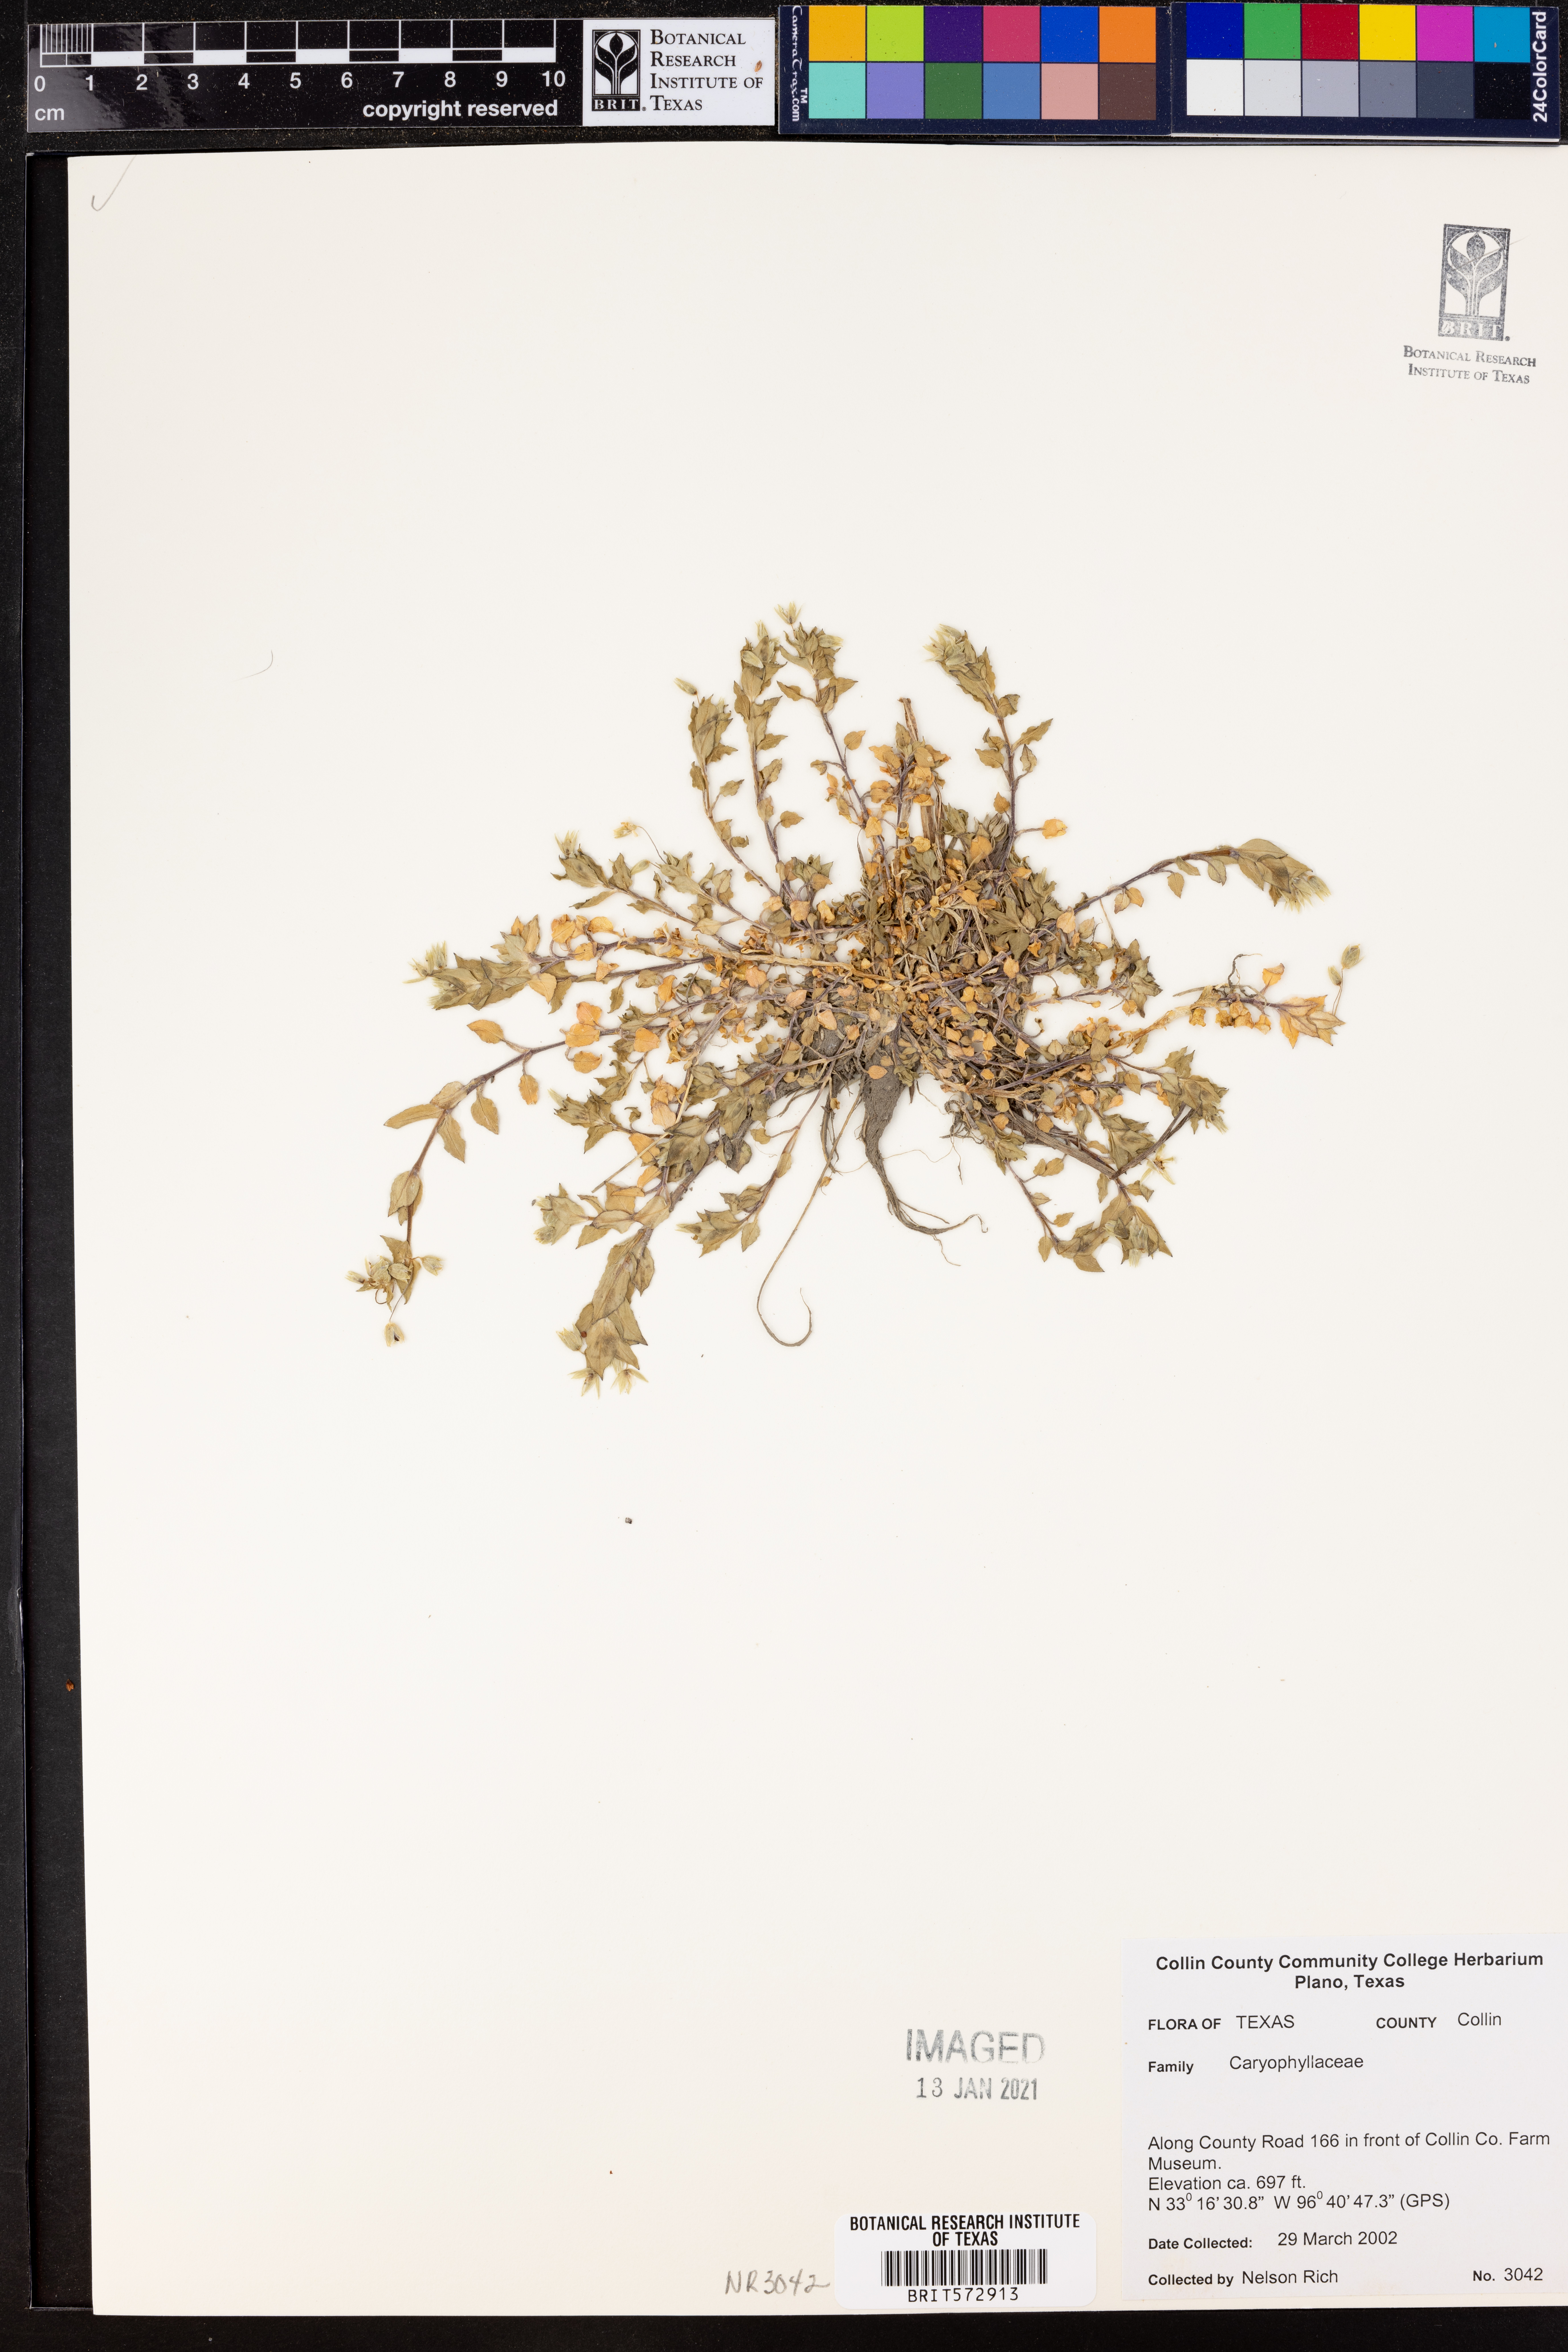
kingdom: Plantae
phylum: Tracheophyta
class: Magnoliopsida
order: Caryophyllales
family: Caryophyllaceae
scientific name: Caryophyllaceae
